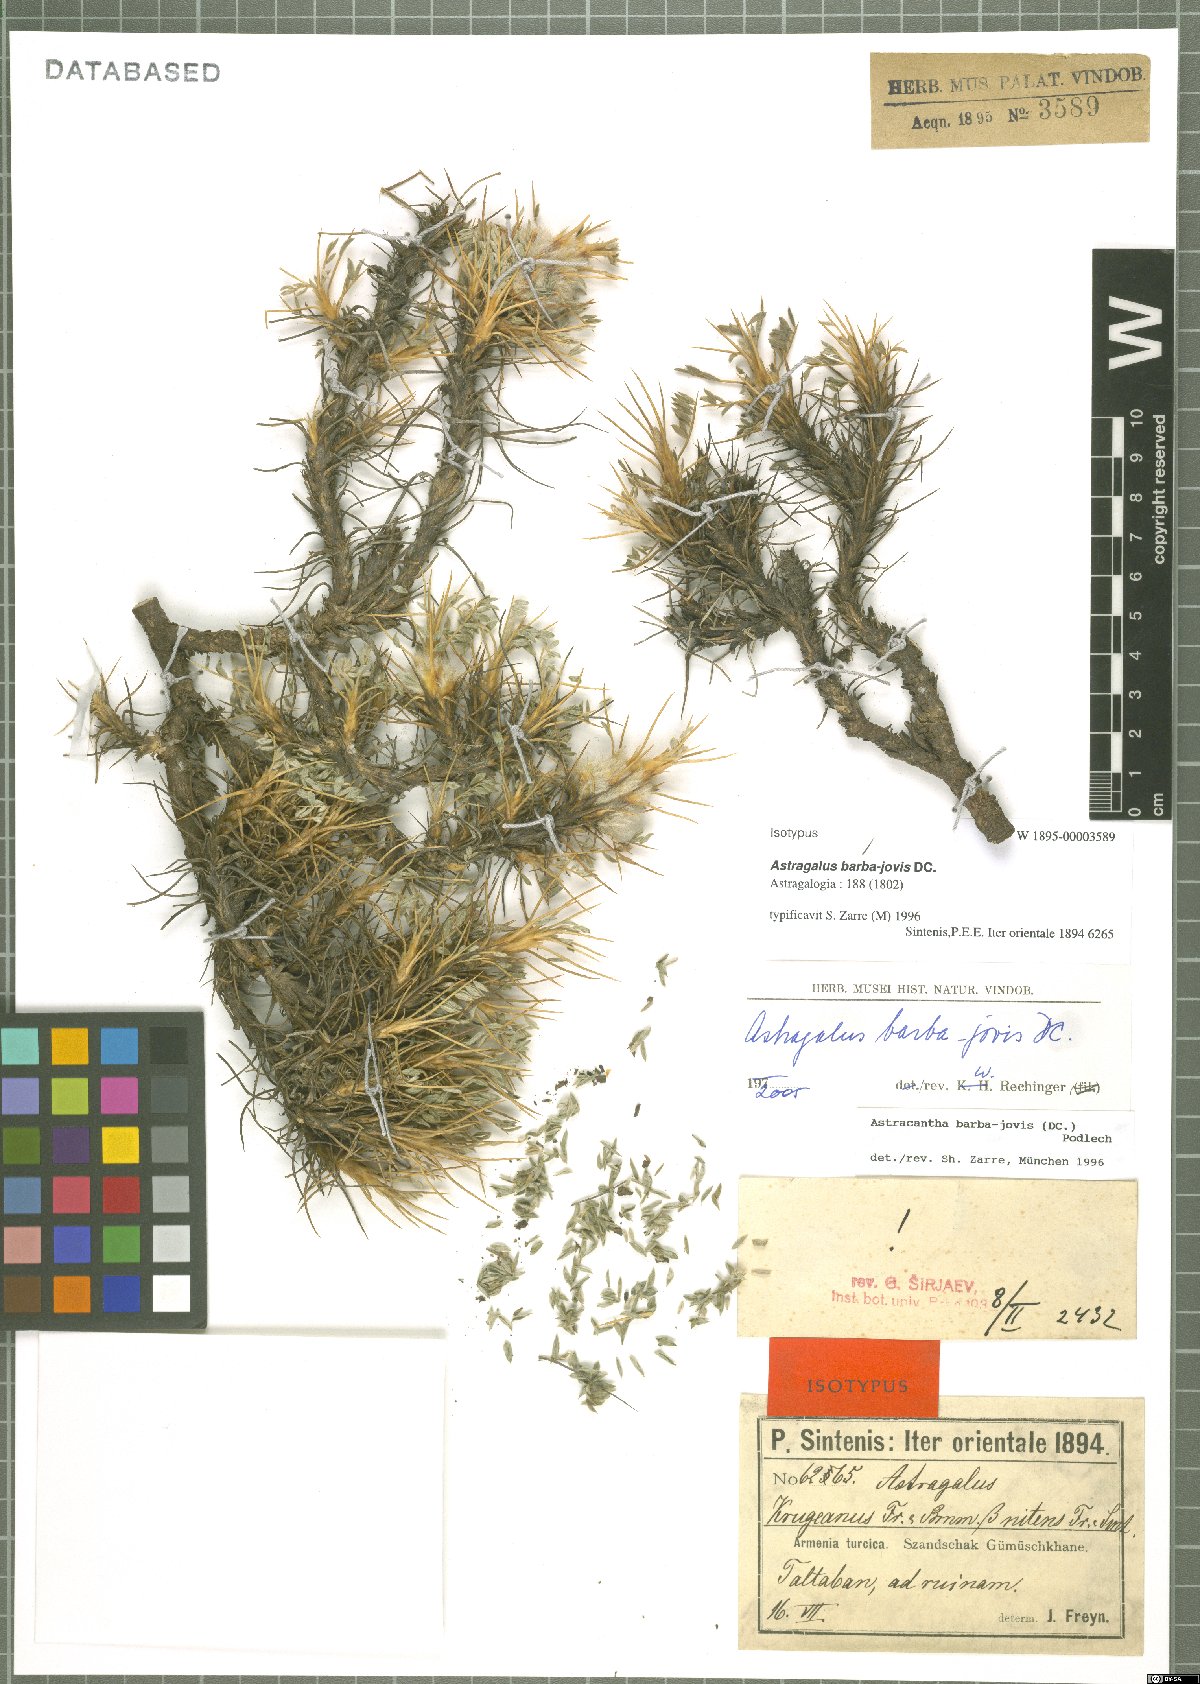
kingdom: Plantae
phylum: Tracheophyta
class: Magnoliopsida
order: Fabales
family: Fabaceae
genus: Astragalus
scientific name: Astragalus barba-jovis
